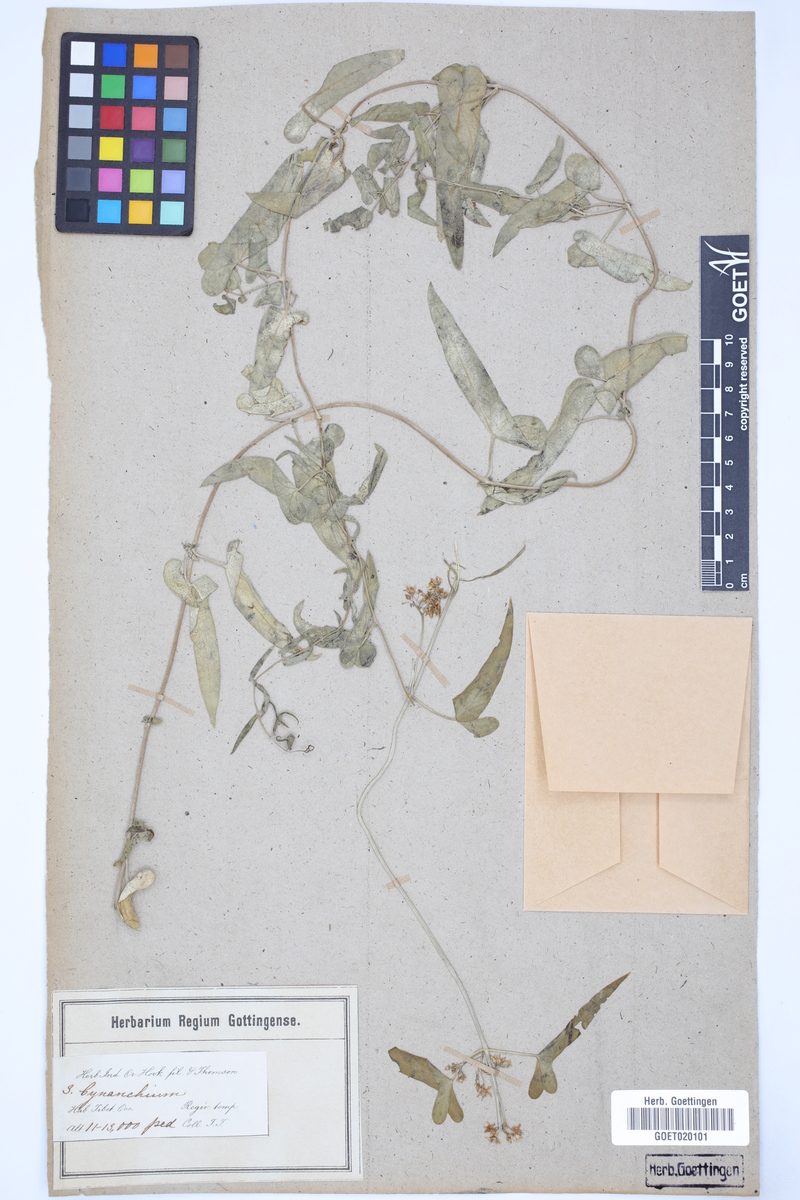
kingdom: Plantae
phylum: Tracheophyta
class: Magnoliopsida
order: Gentianales
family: Apocynaceae
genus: Cynanchum
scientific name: Cynanchum acutum
